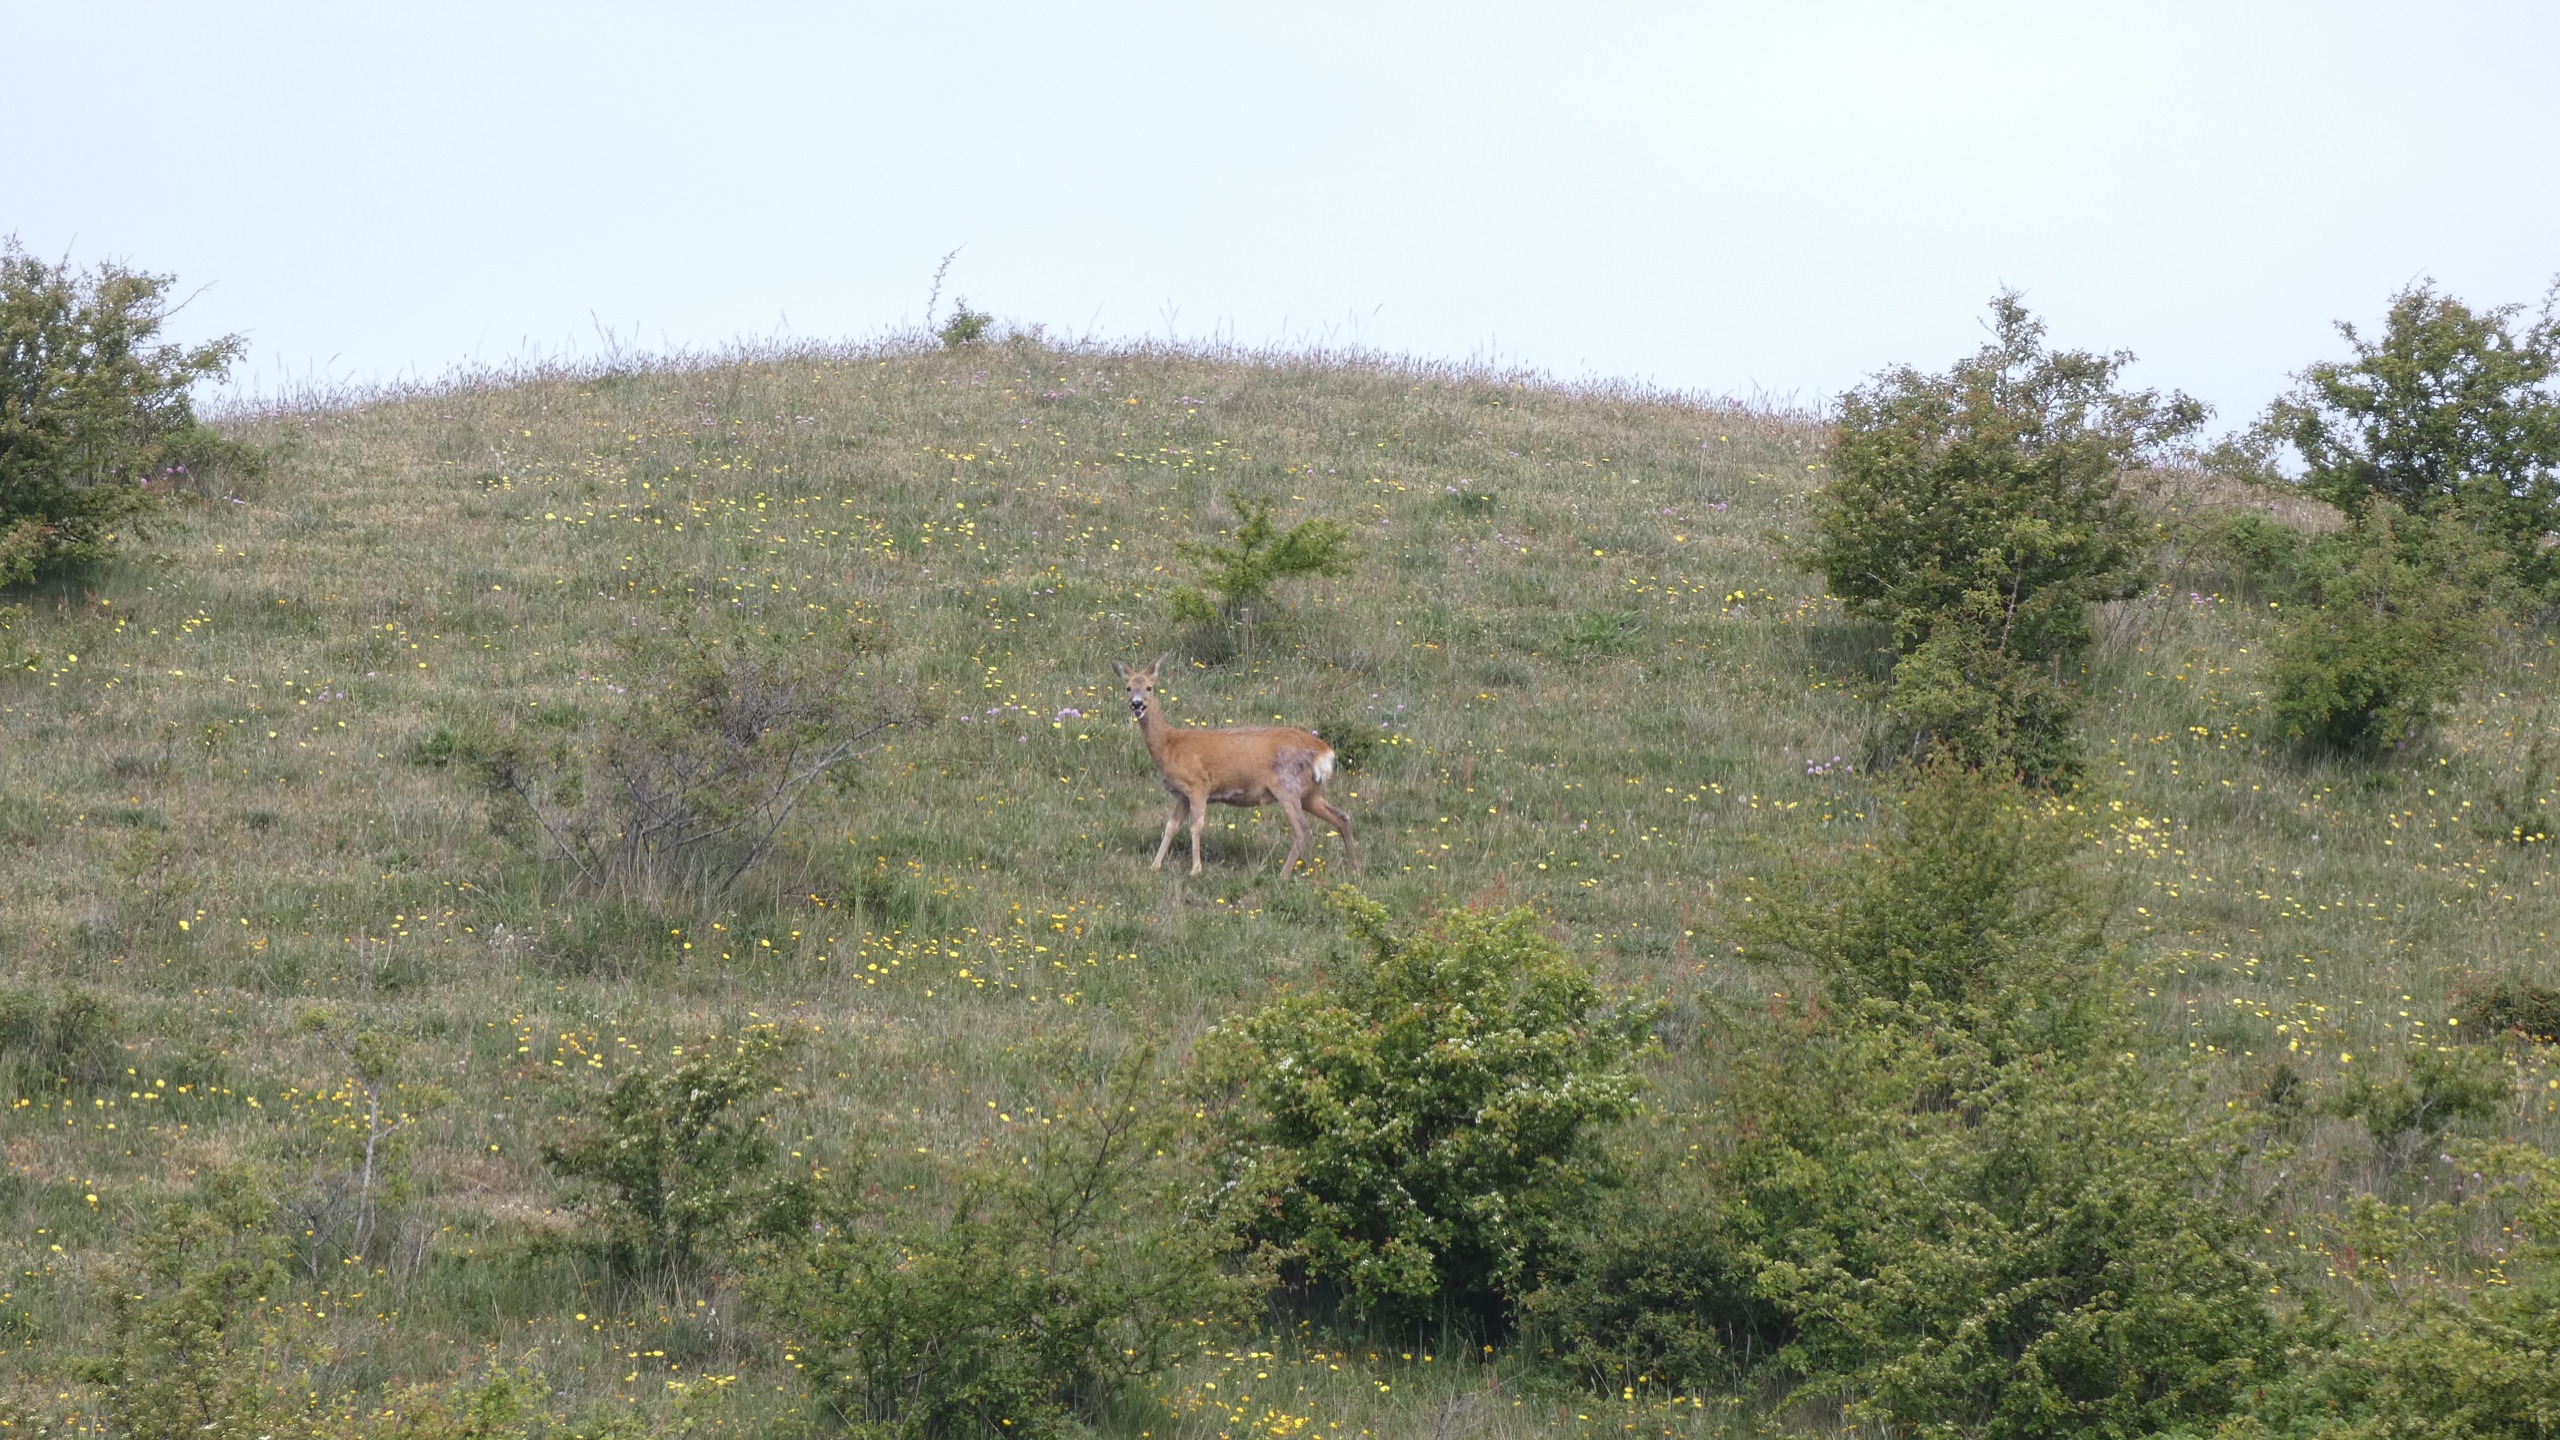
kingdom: Animalia
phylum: Chordata
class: Mammalia
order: Artiodactyla
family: Cervidae
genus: Capreolus
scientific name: Capreolus capreolus
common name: Rådyr
